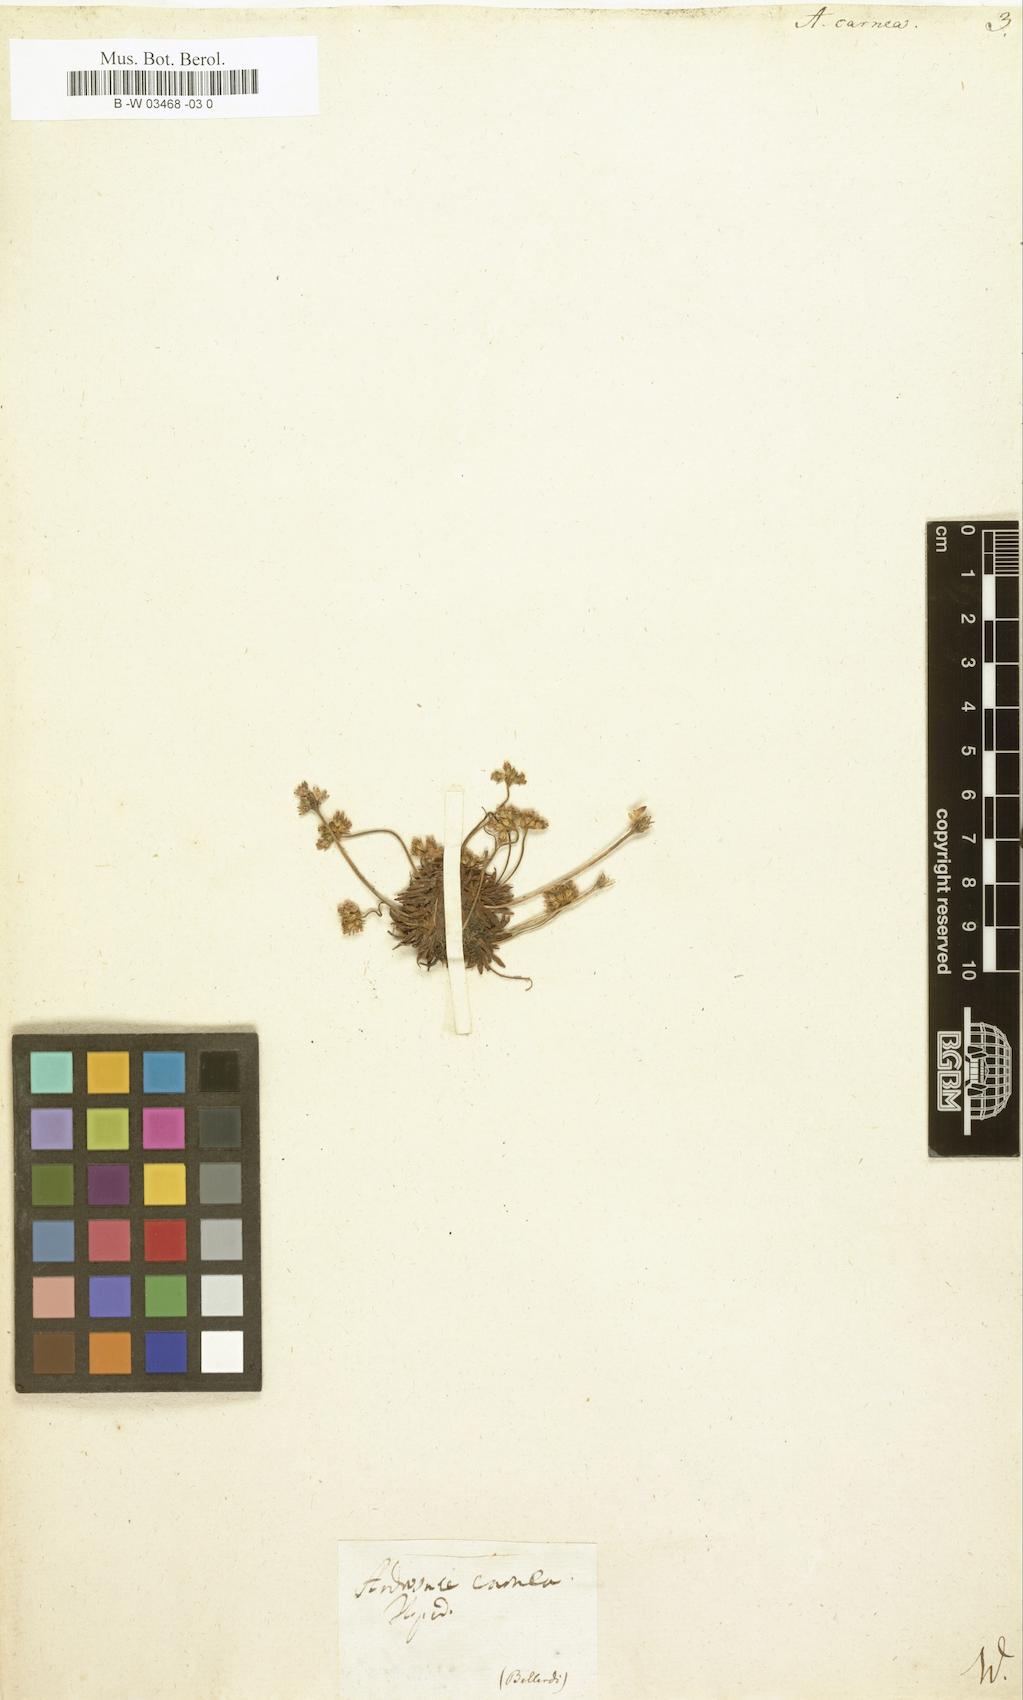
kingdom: Plantae
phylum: Tracheophyta
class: Magnoliopsida
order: Ericales
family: Primulaceae
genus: Androsace
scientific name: Androsace laggeri
